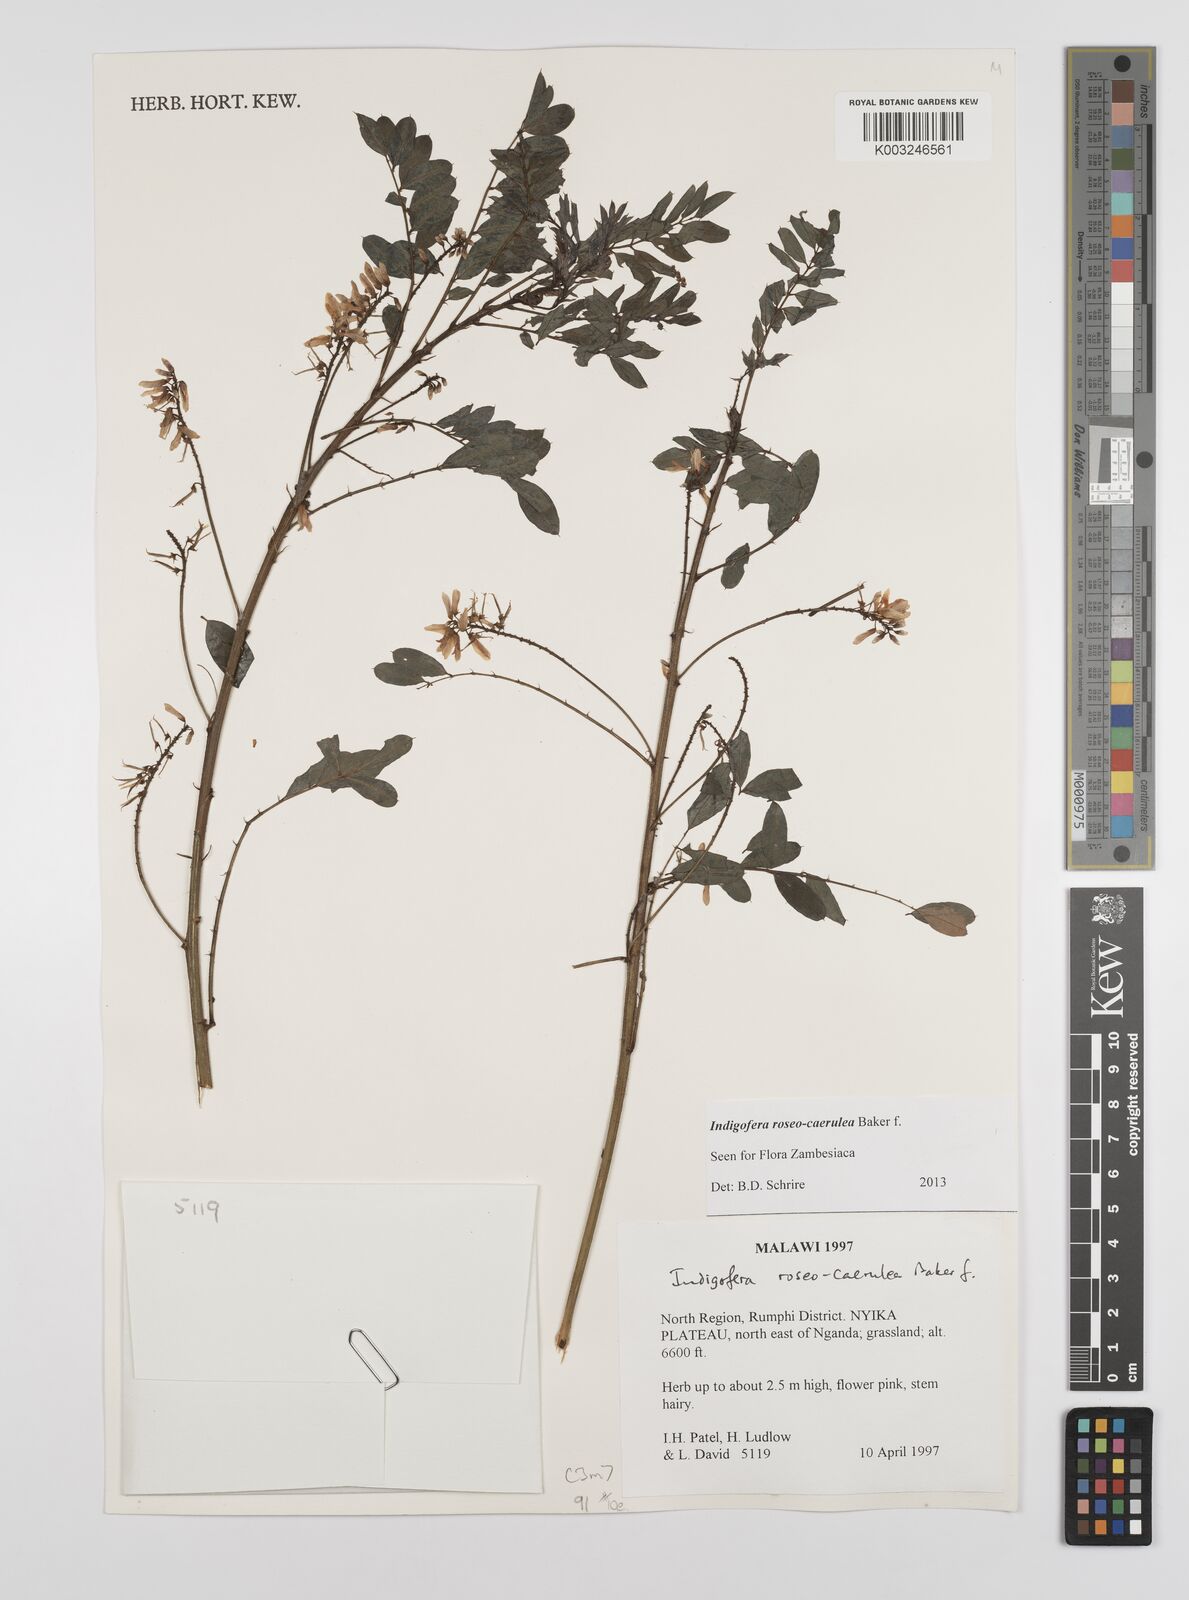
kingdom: Plantae
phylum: Tracheophyta
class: Magnoliopsida
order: Fabales
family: Fabaceae
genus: Indigofera
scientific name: Indigofera roseocaerulea
